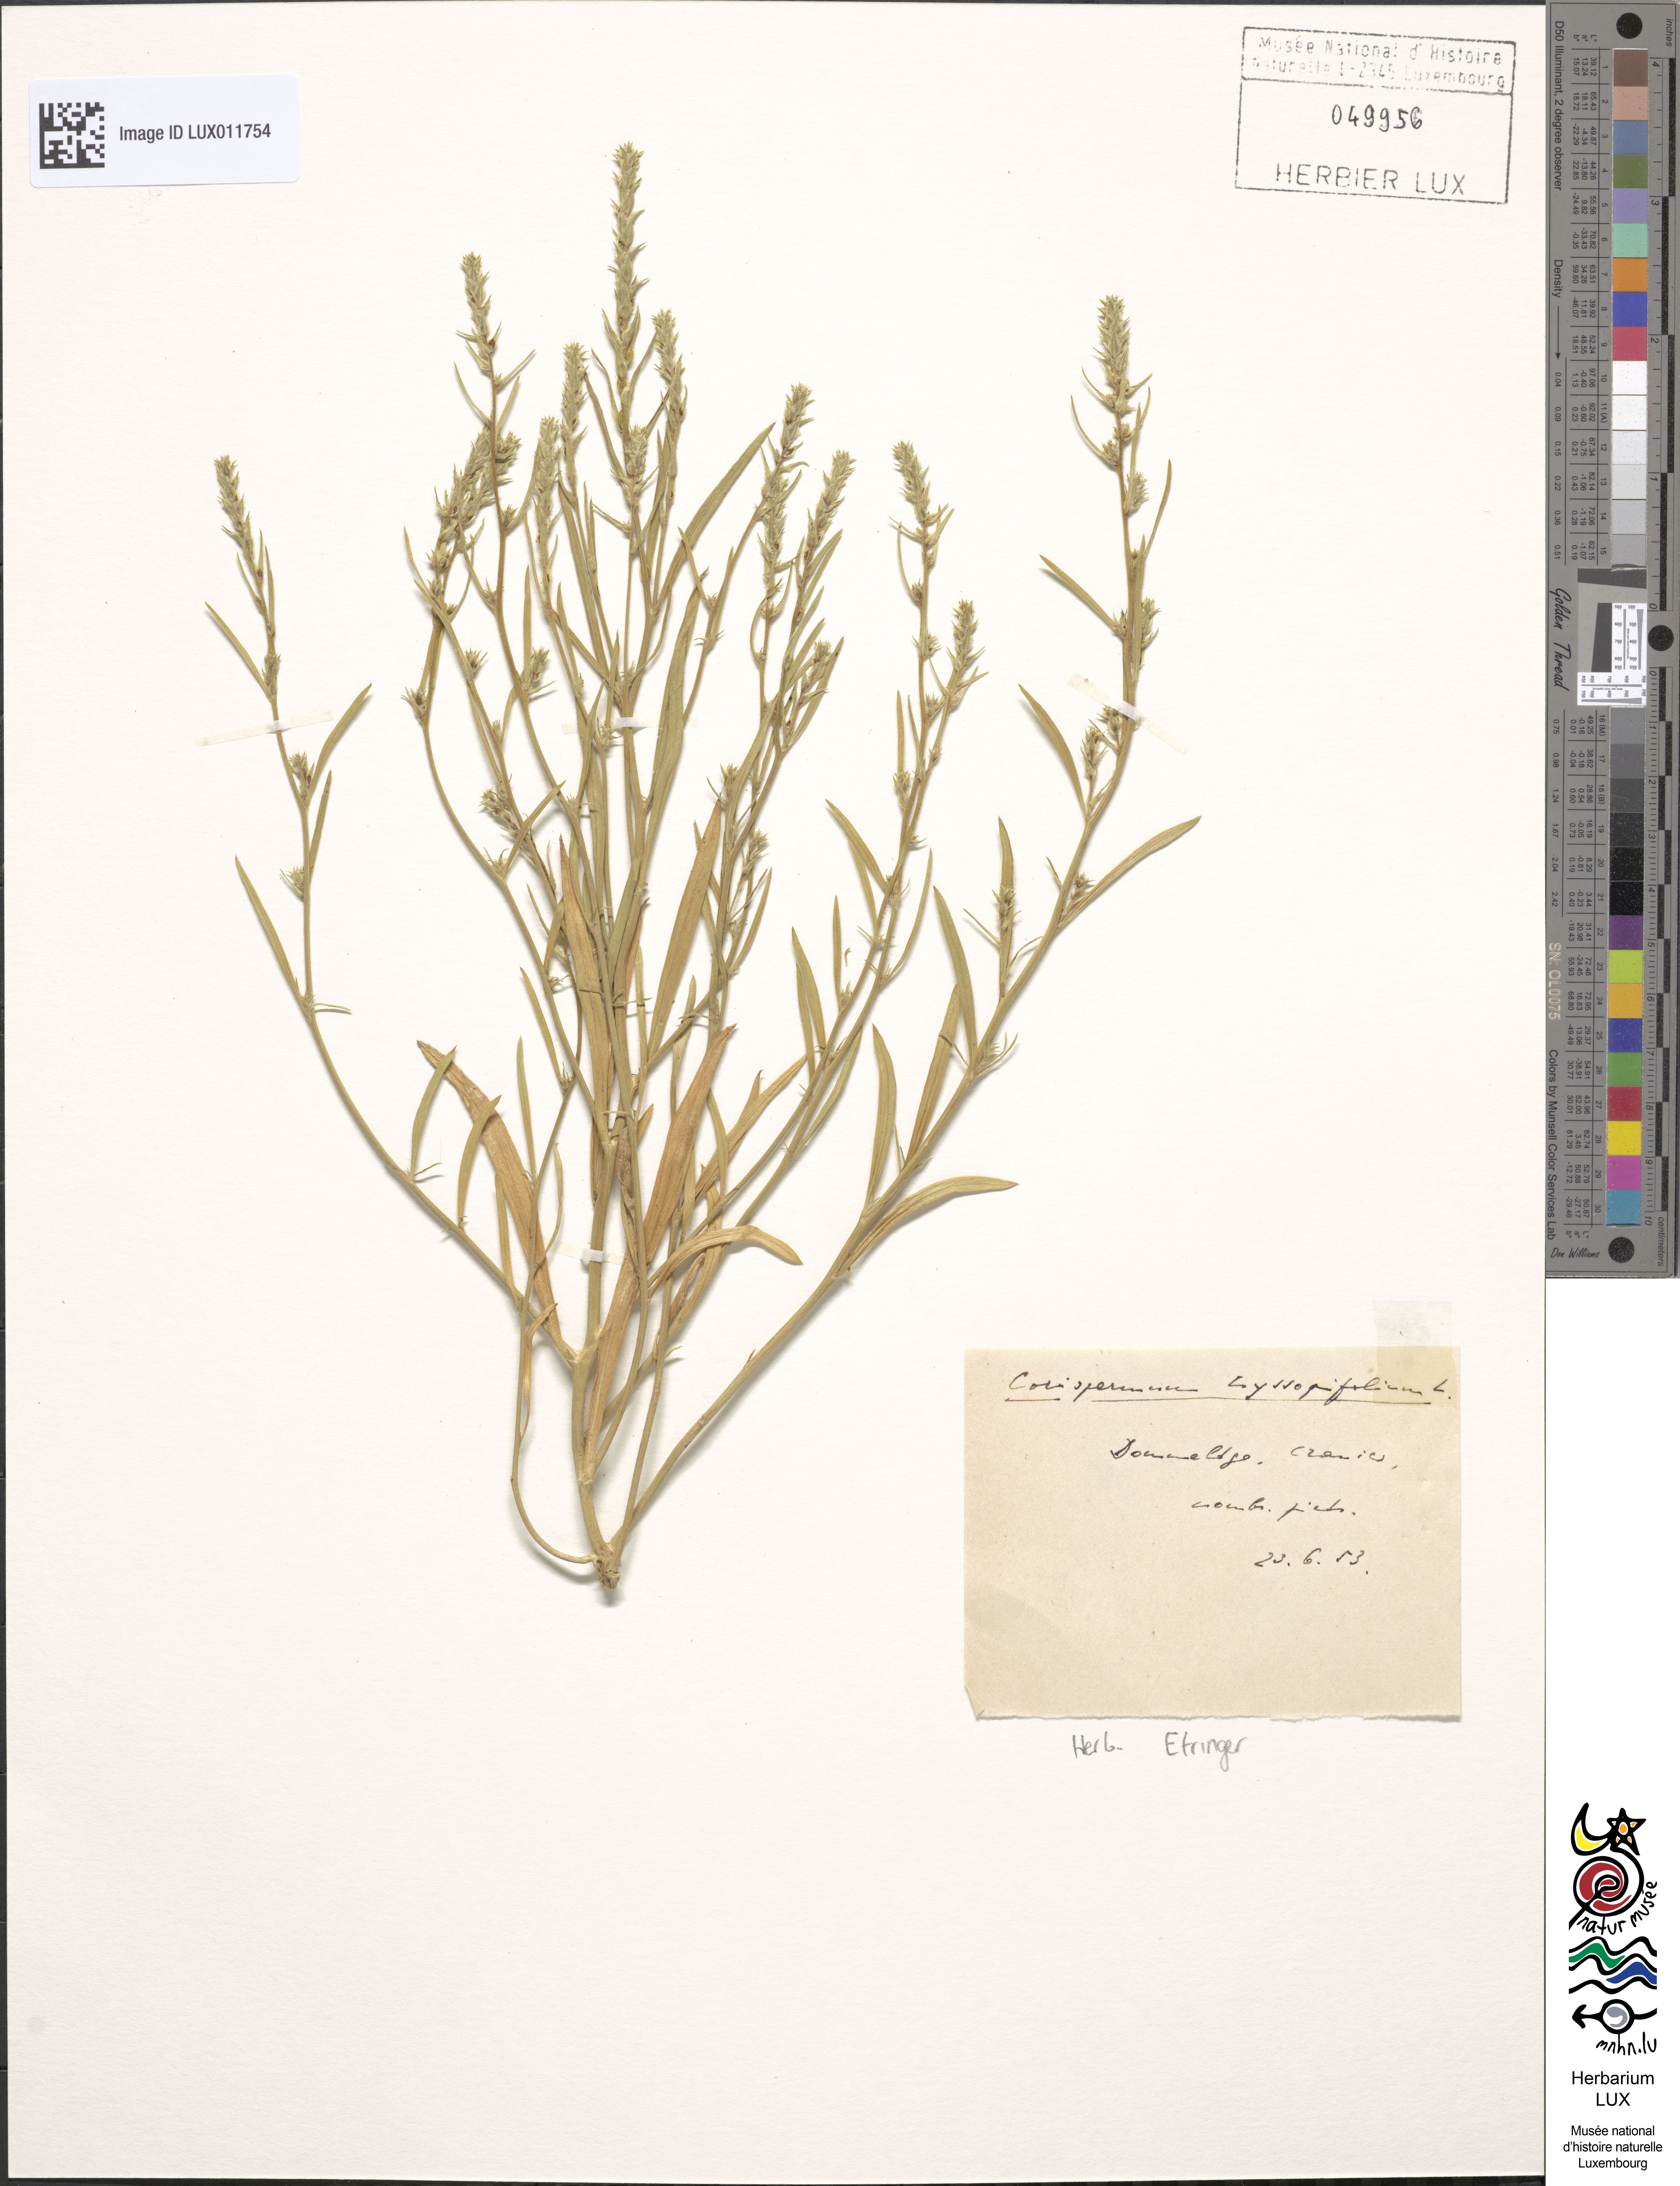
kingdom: Plantae
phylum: Tracheophyta
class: Magnoliopsida
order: Caryophyllales
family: Amaranthaceae
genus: Corispermum
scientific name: Corispermum hyssopifolium
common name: Bugseed
